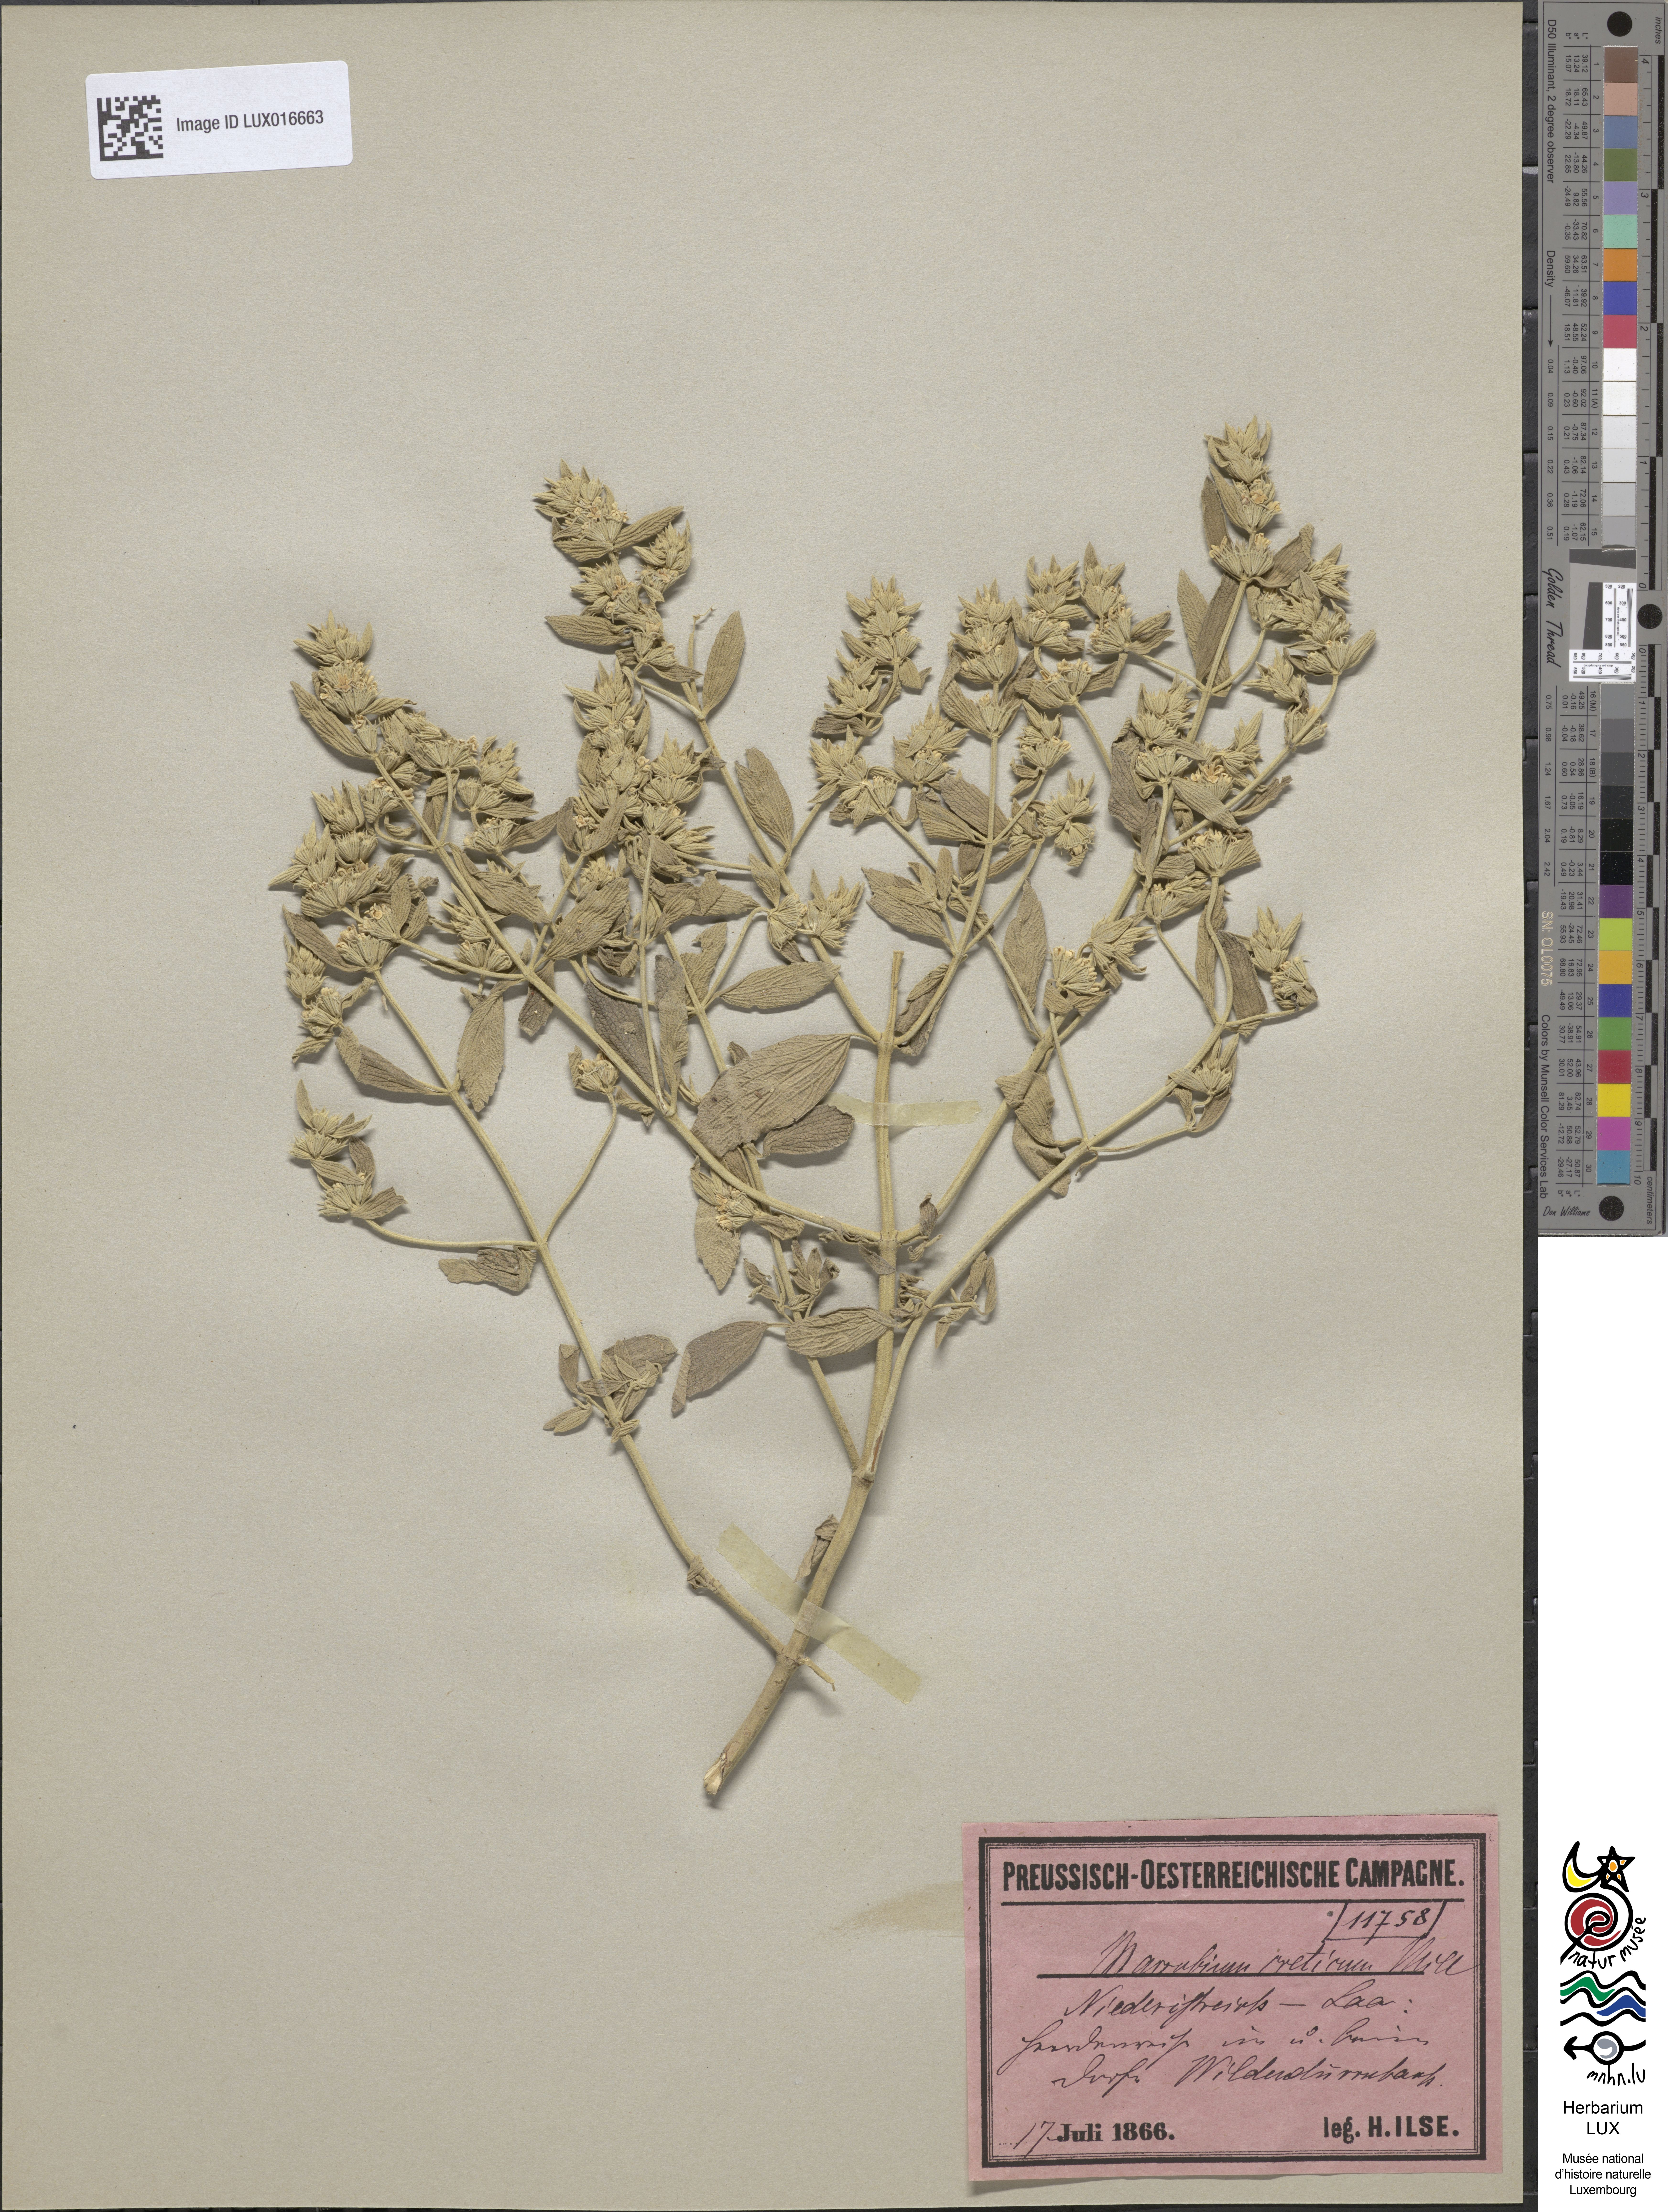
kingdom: Plantae
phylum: Tracheophyta
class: Magnoliopsida
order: Lamiales
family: Lamiaceae
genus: Marrubium
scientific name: Marrubium peregrinum
